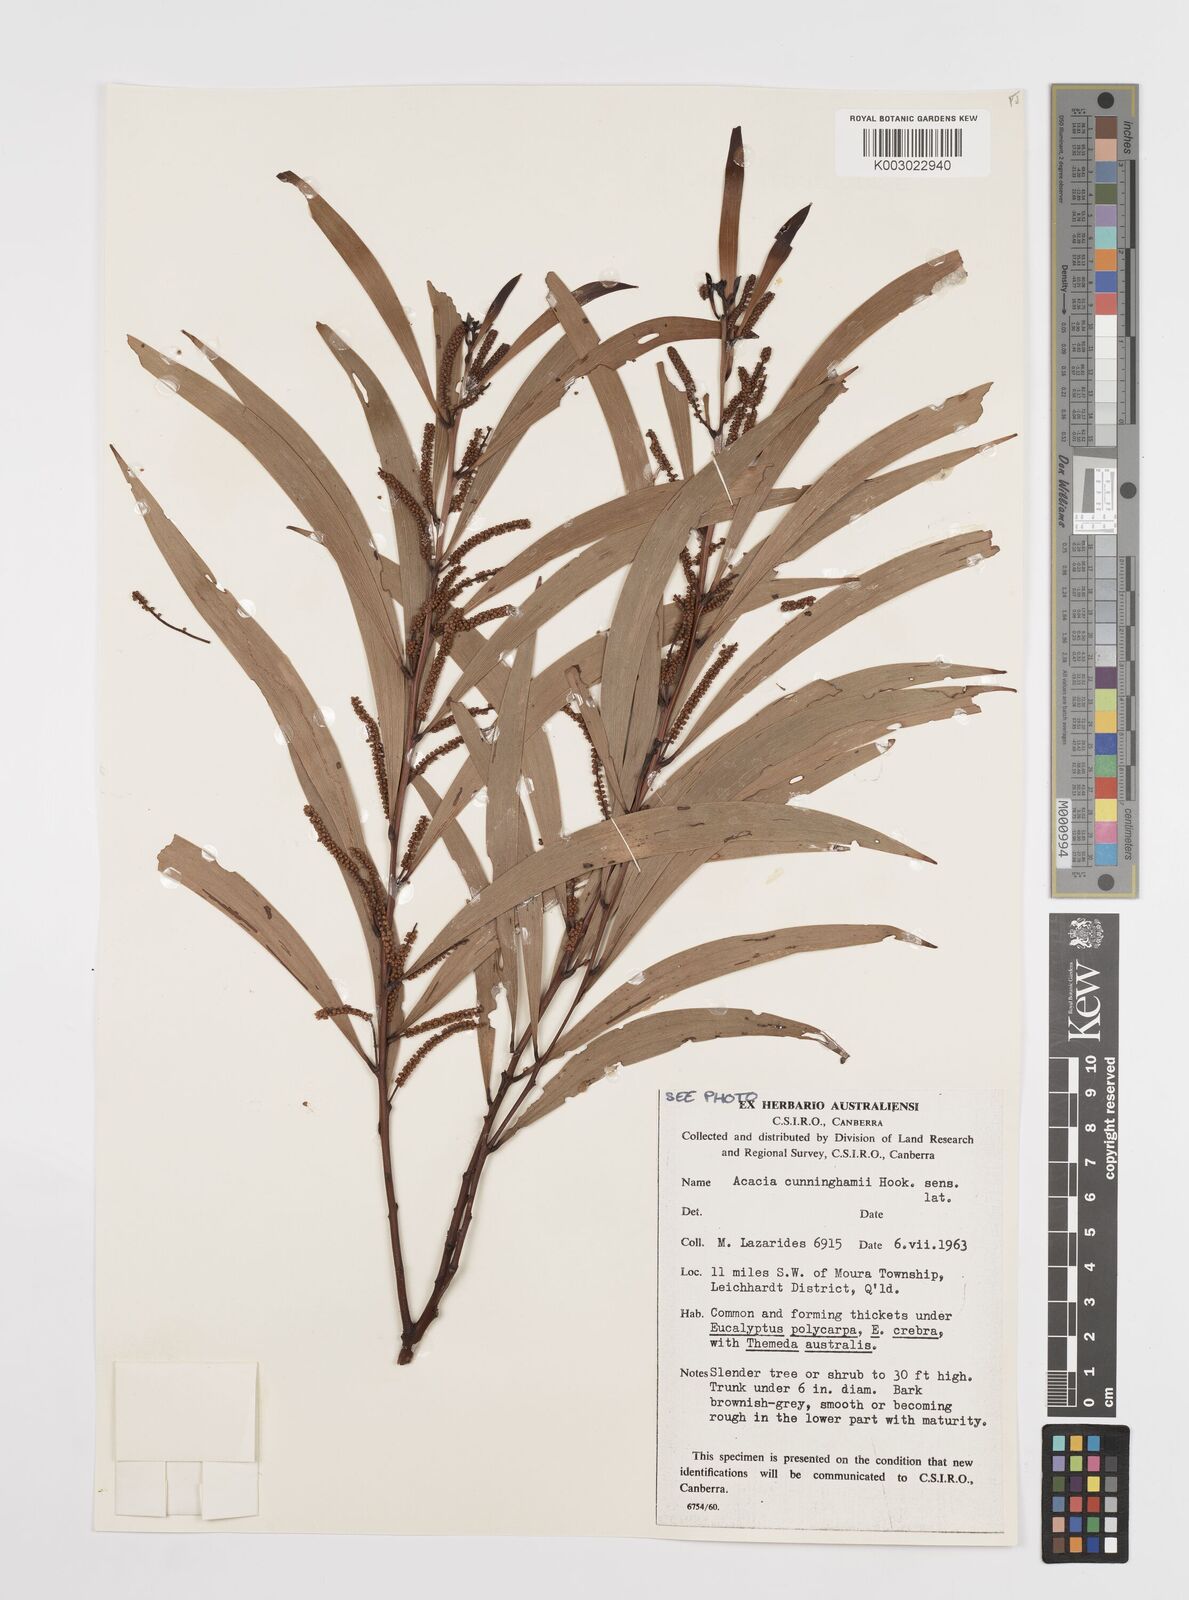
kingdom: Plantae
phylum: Tracheophyta
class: Magnoliopsida
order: Fabales
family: Fabaceae
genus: Acacia
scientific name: Acacia longispicata
